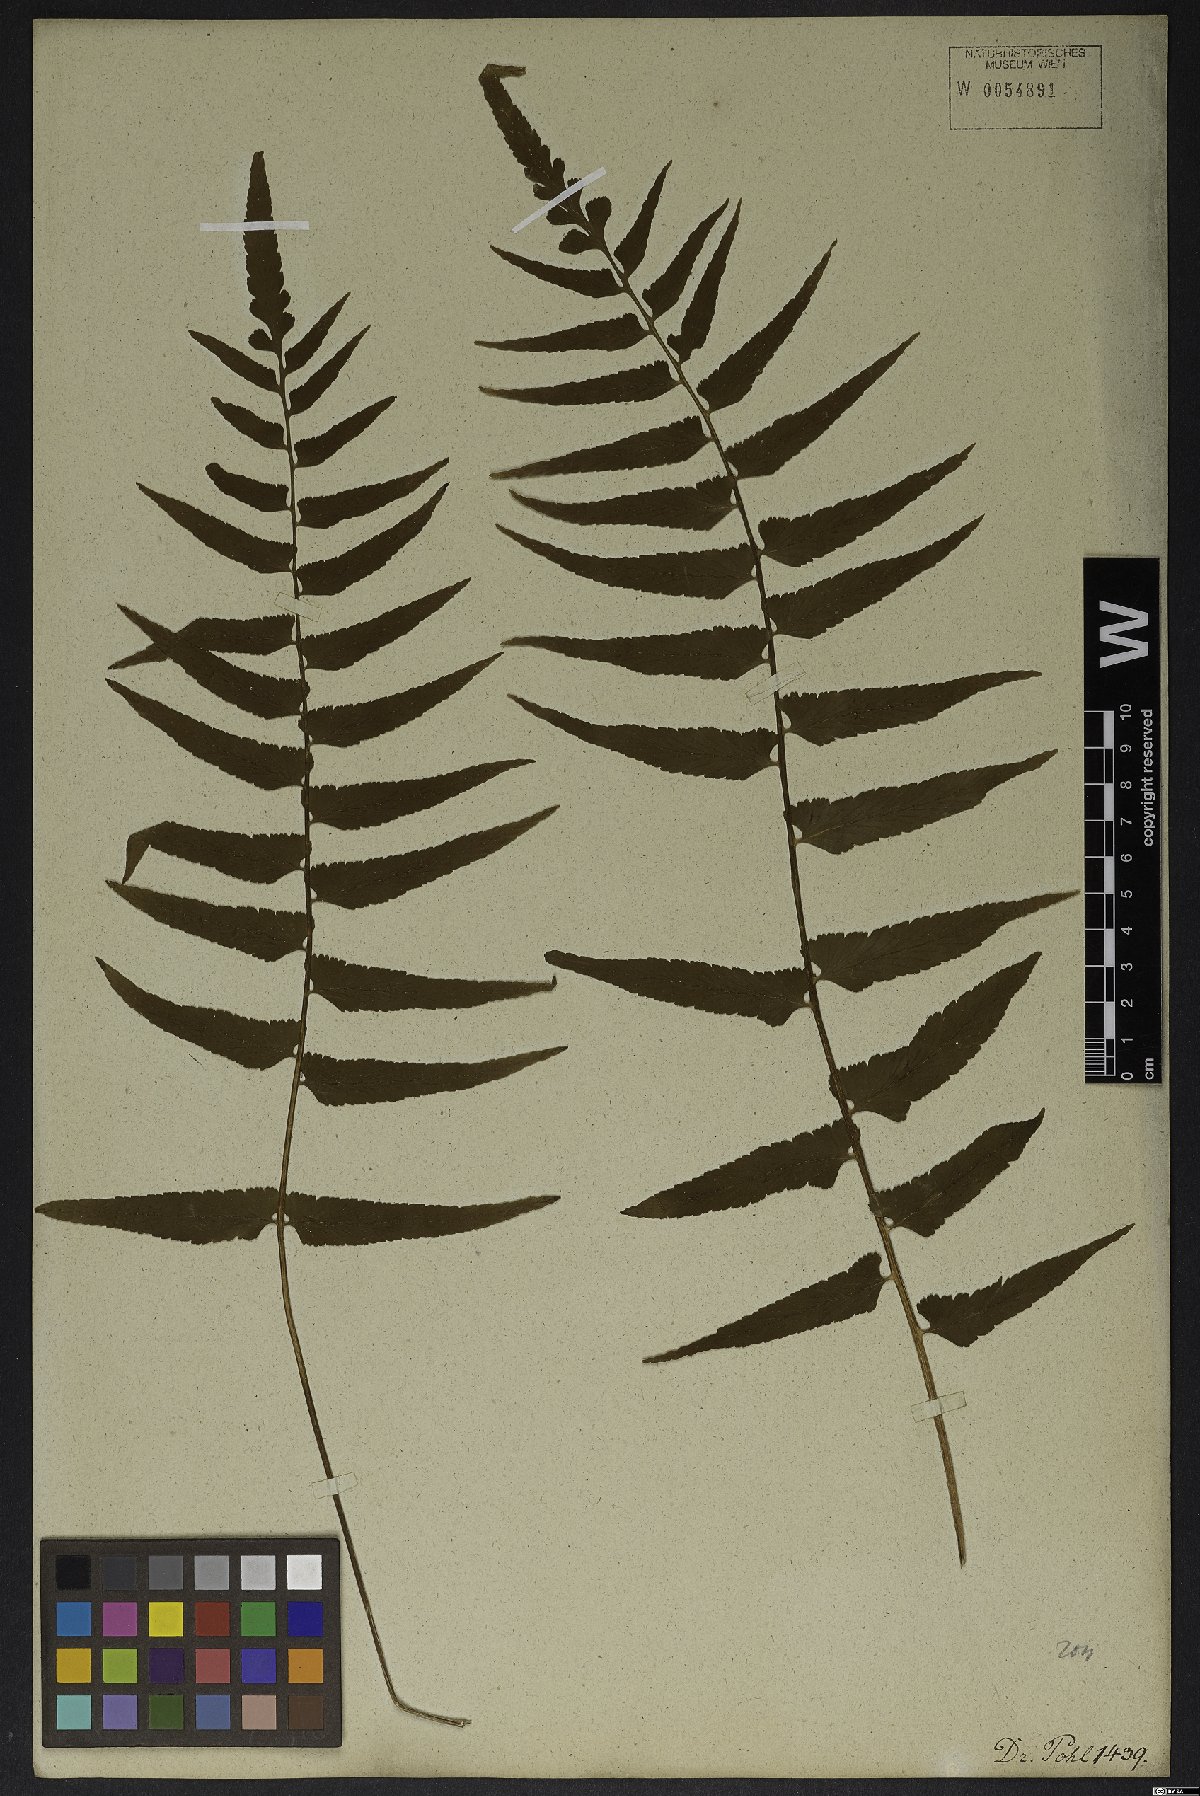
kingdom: Plantae
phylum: Tracheophyta
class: Polypodiopsida
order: Polypodiales
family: Aspleniaceae
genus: Asplenium
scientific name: Asplenium auriculatum
